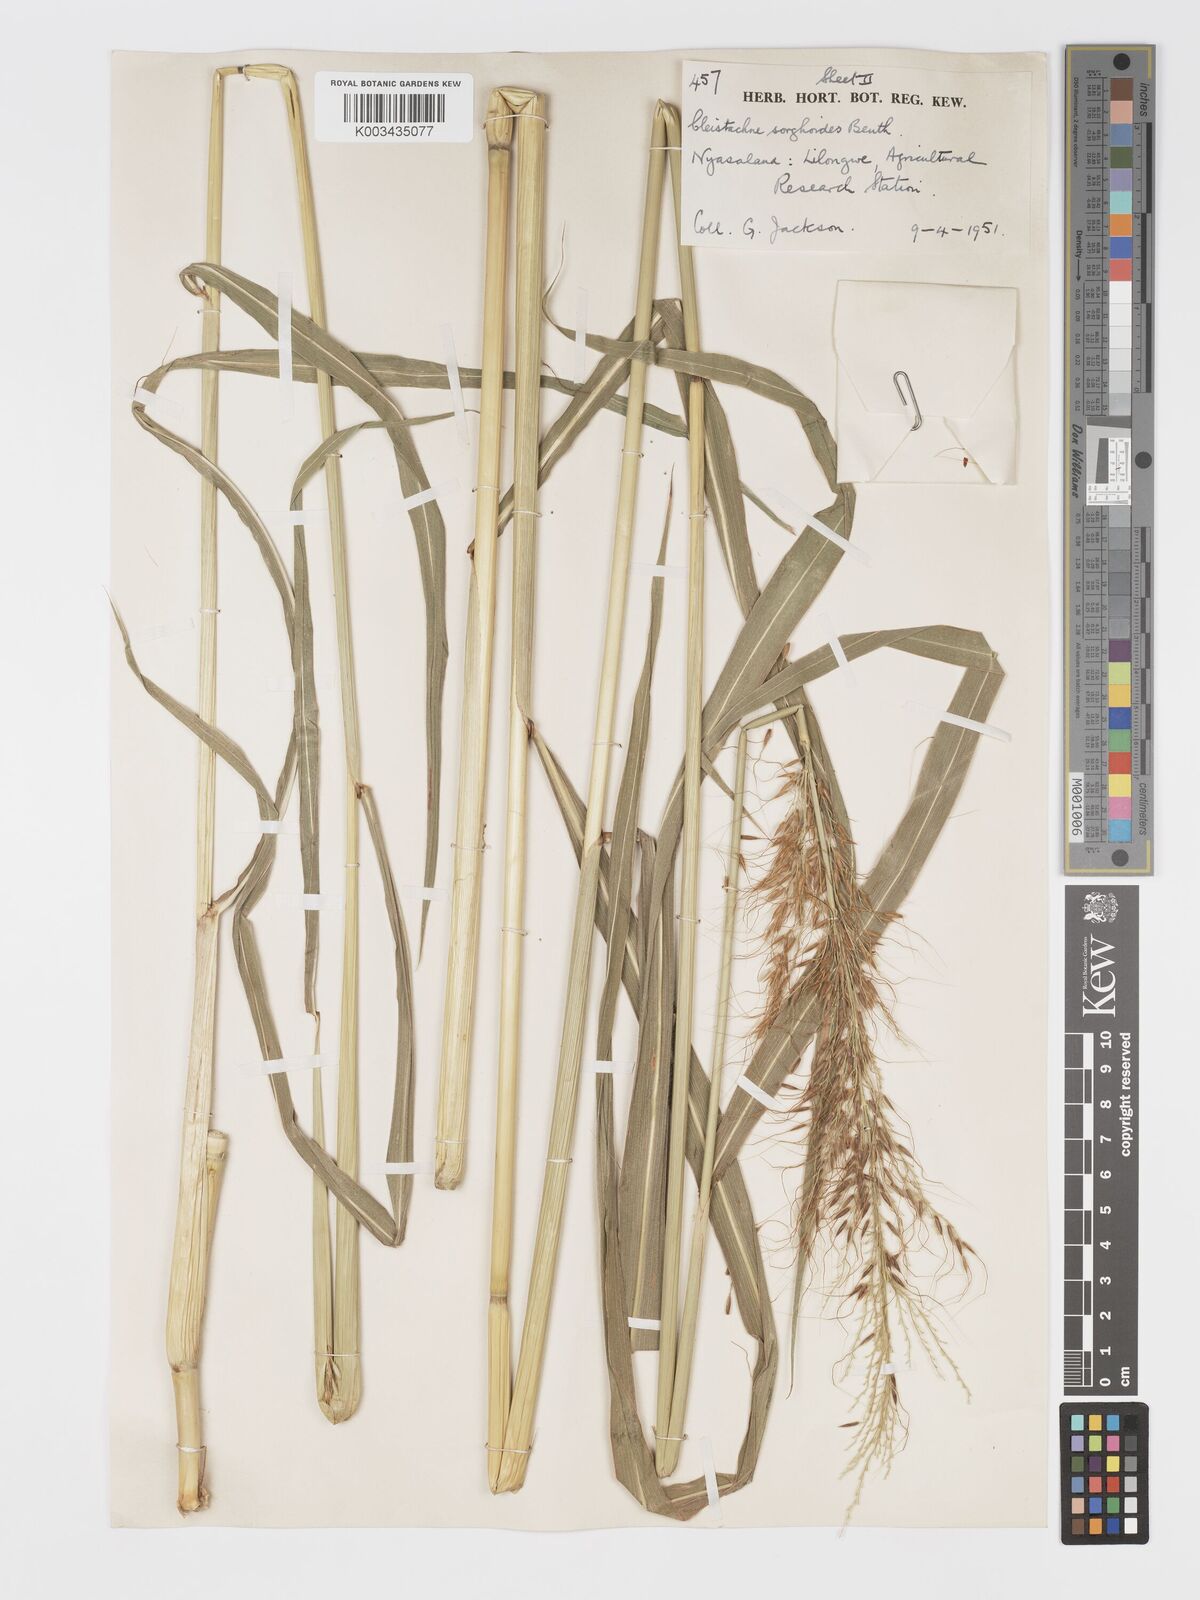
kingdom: Plantae
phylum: Tracheophyta
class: Liliopsida
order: Poales
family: Poaceae
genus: Cleistachne
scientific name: Cleistachne sorghoides
